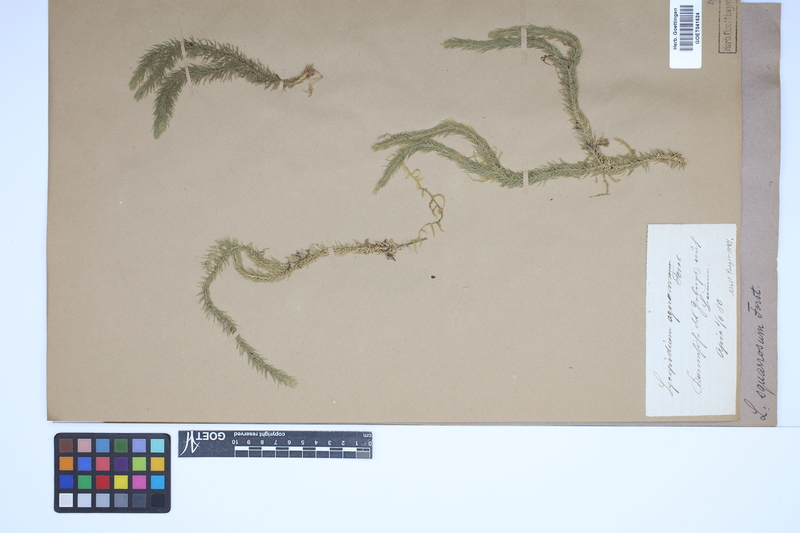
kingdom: Plantae
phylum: Tracheophyta
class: Lycopodiopsida
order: Lycopodiales
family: Lycopodiaceae
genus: Phlegmariurus
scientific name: Phlegmariurus squarrosus
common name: Rock tassel-fern
